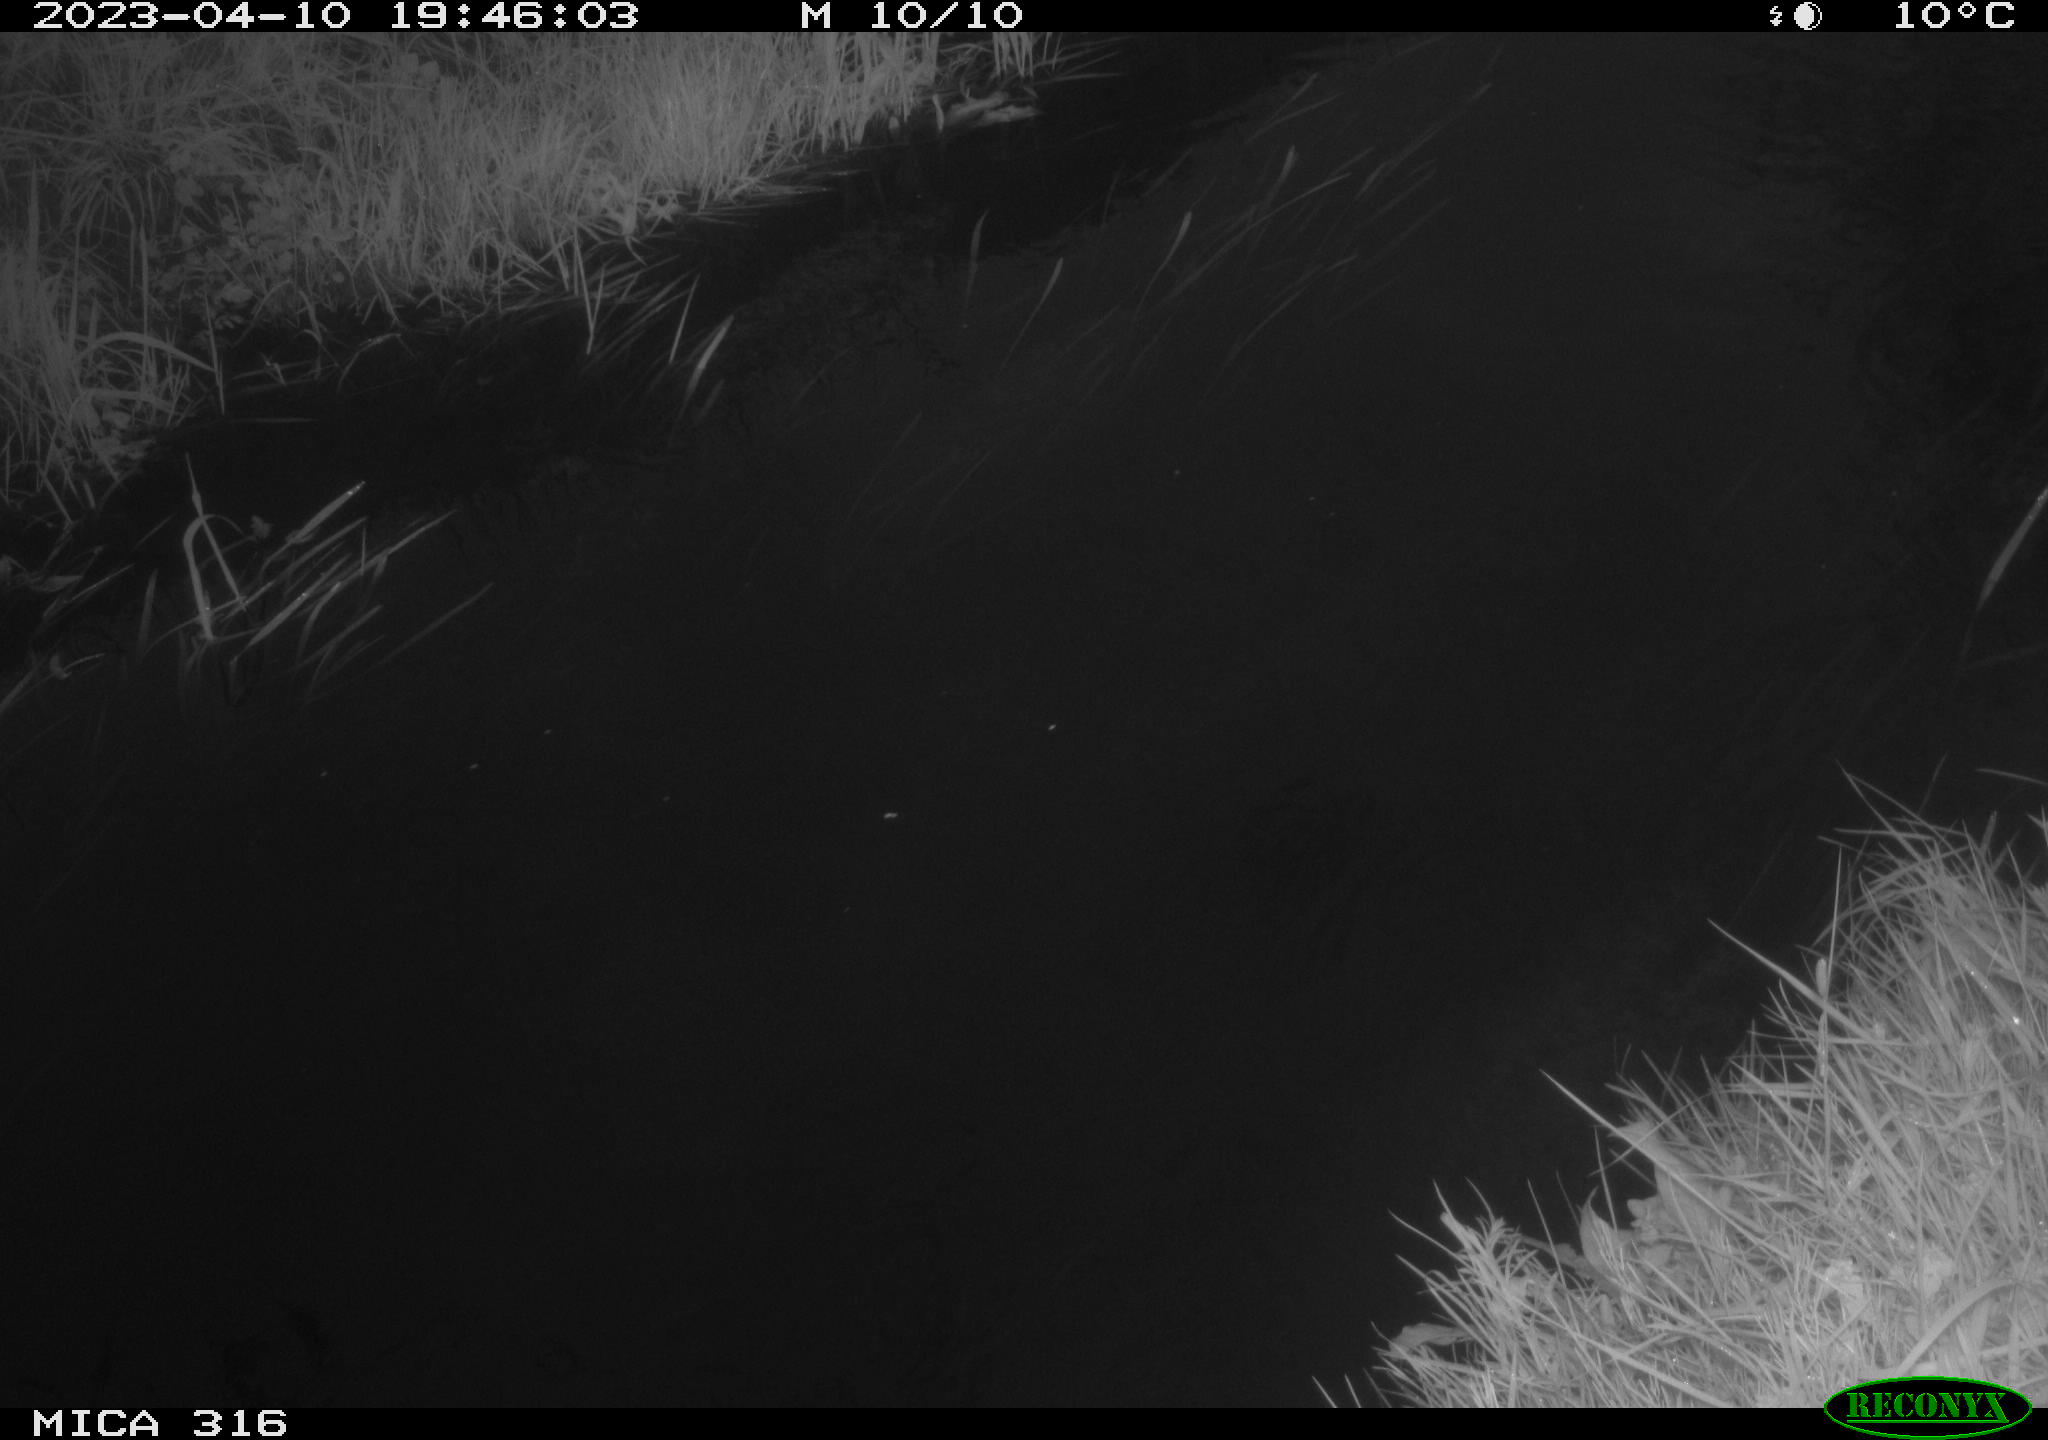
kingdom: Animalia
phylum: Chordata
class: Aves
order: Anseriformes
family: Anatidae
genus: Anas
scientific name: Anas
